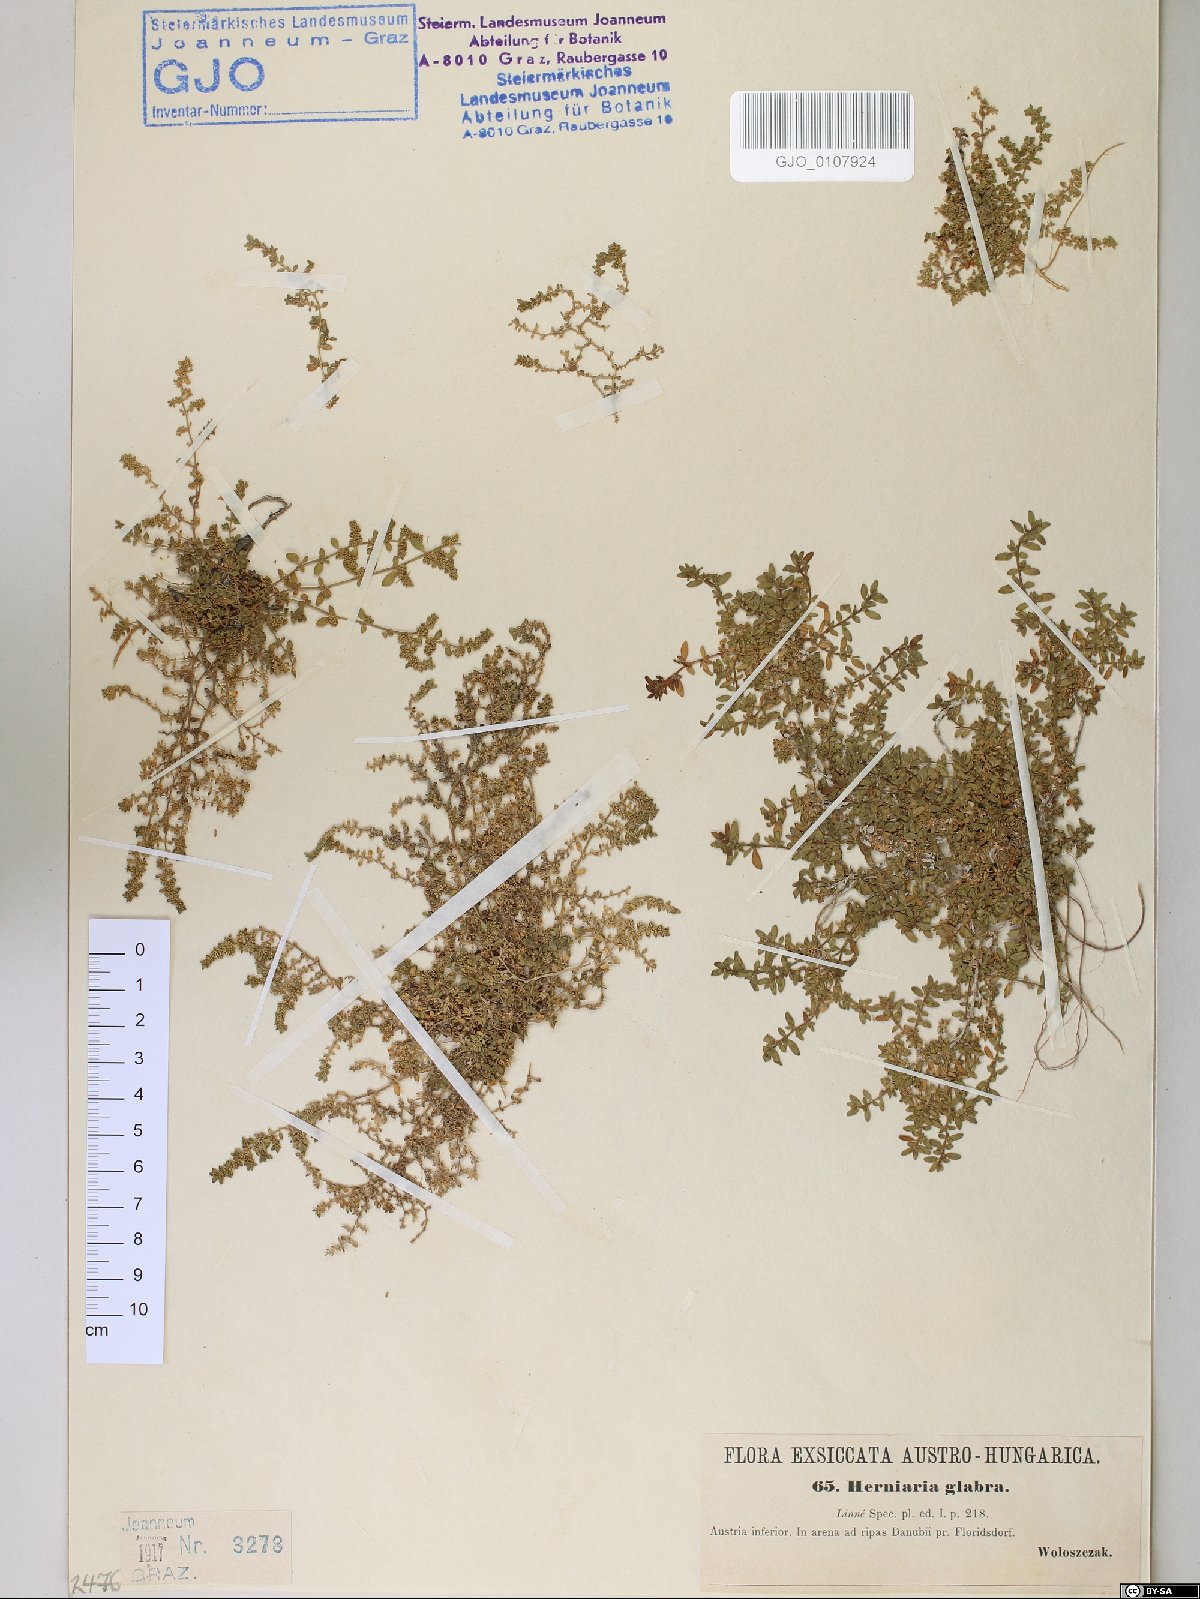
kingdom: Plantae
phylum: Tracheophyta
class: Magnoliopsida
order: Caryophyllales
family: Caryophyllaceae
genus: Herniaria
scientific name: Herniaria glabra
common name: Smooth rupturewort
